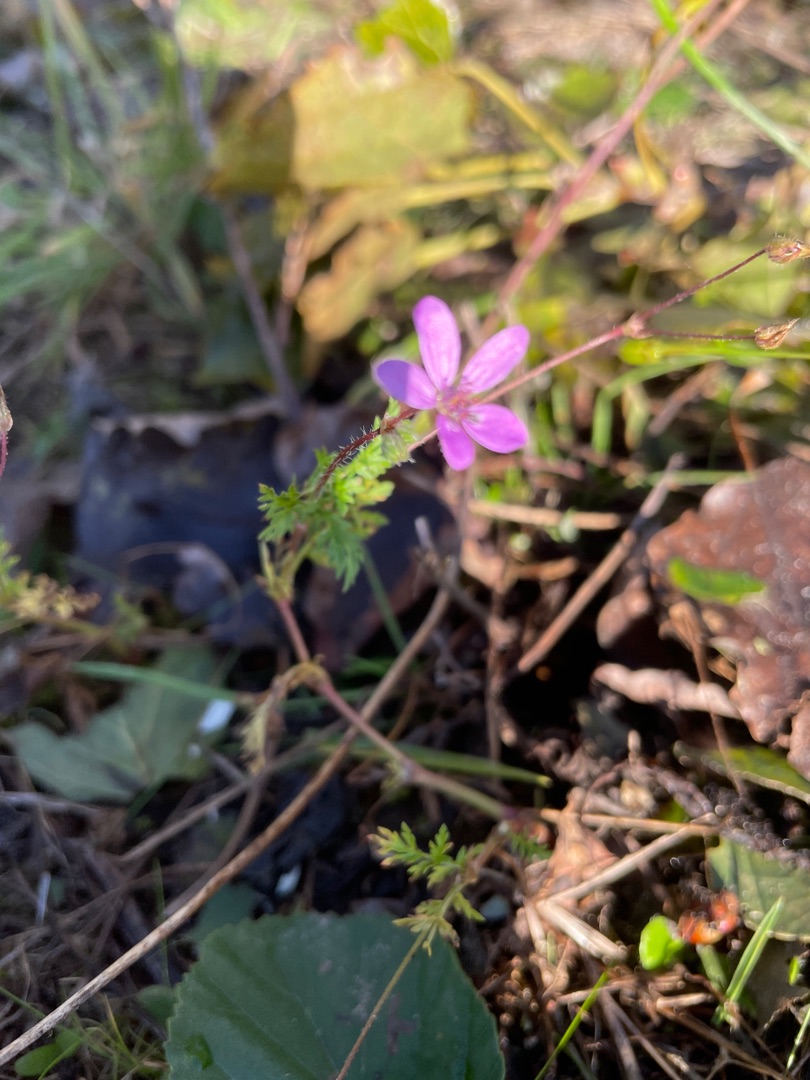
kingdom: Plantae
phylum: Tracheophyta
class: Magnoliopsida
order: Geraniales
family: Geraniaceae
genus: Erodium
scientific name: Erodium cicutarium
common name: Hejrenæb
